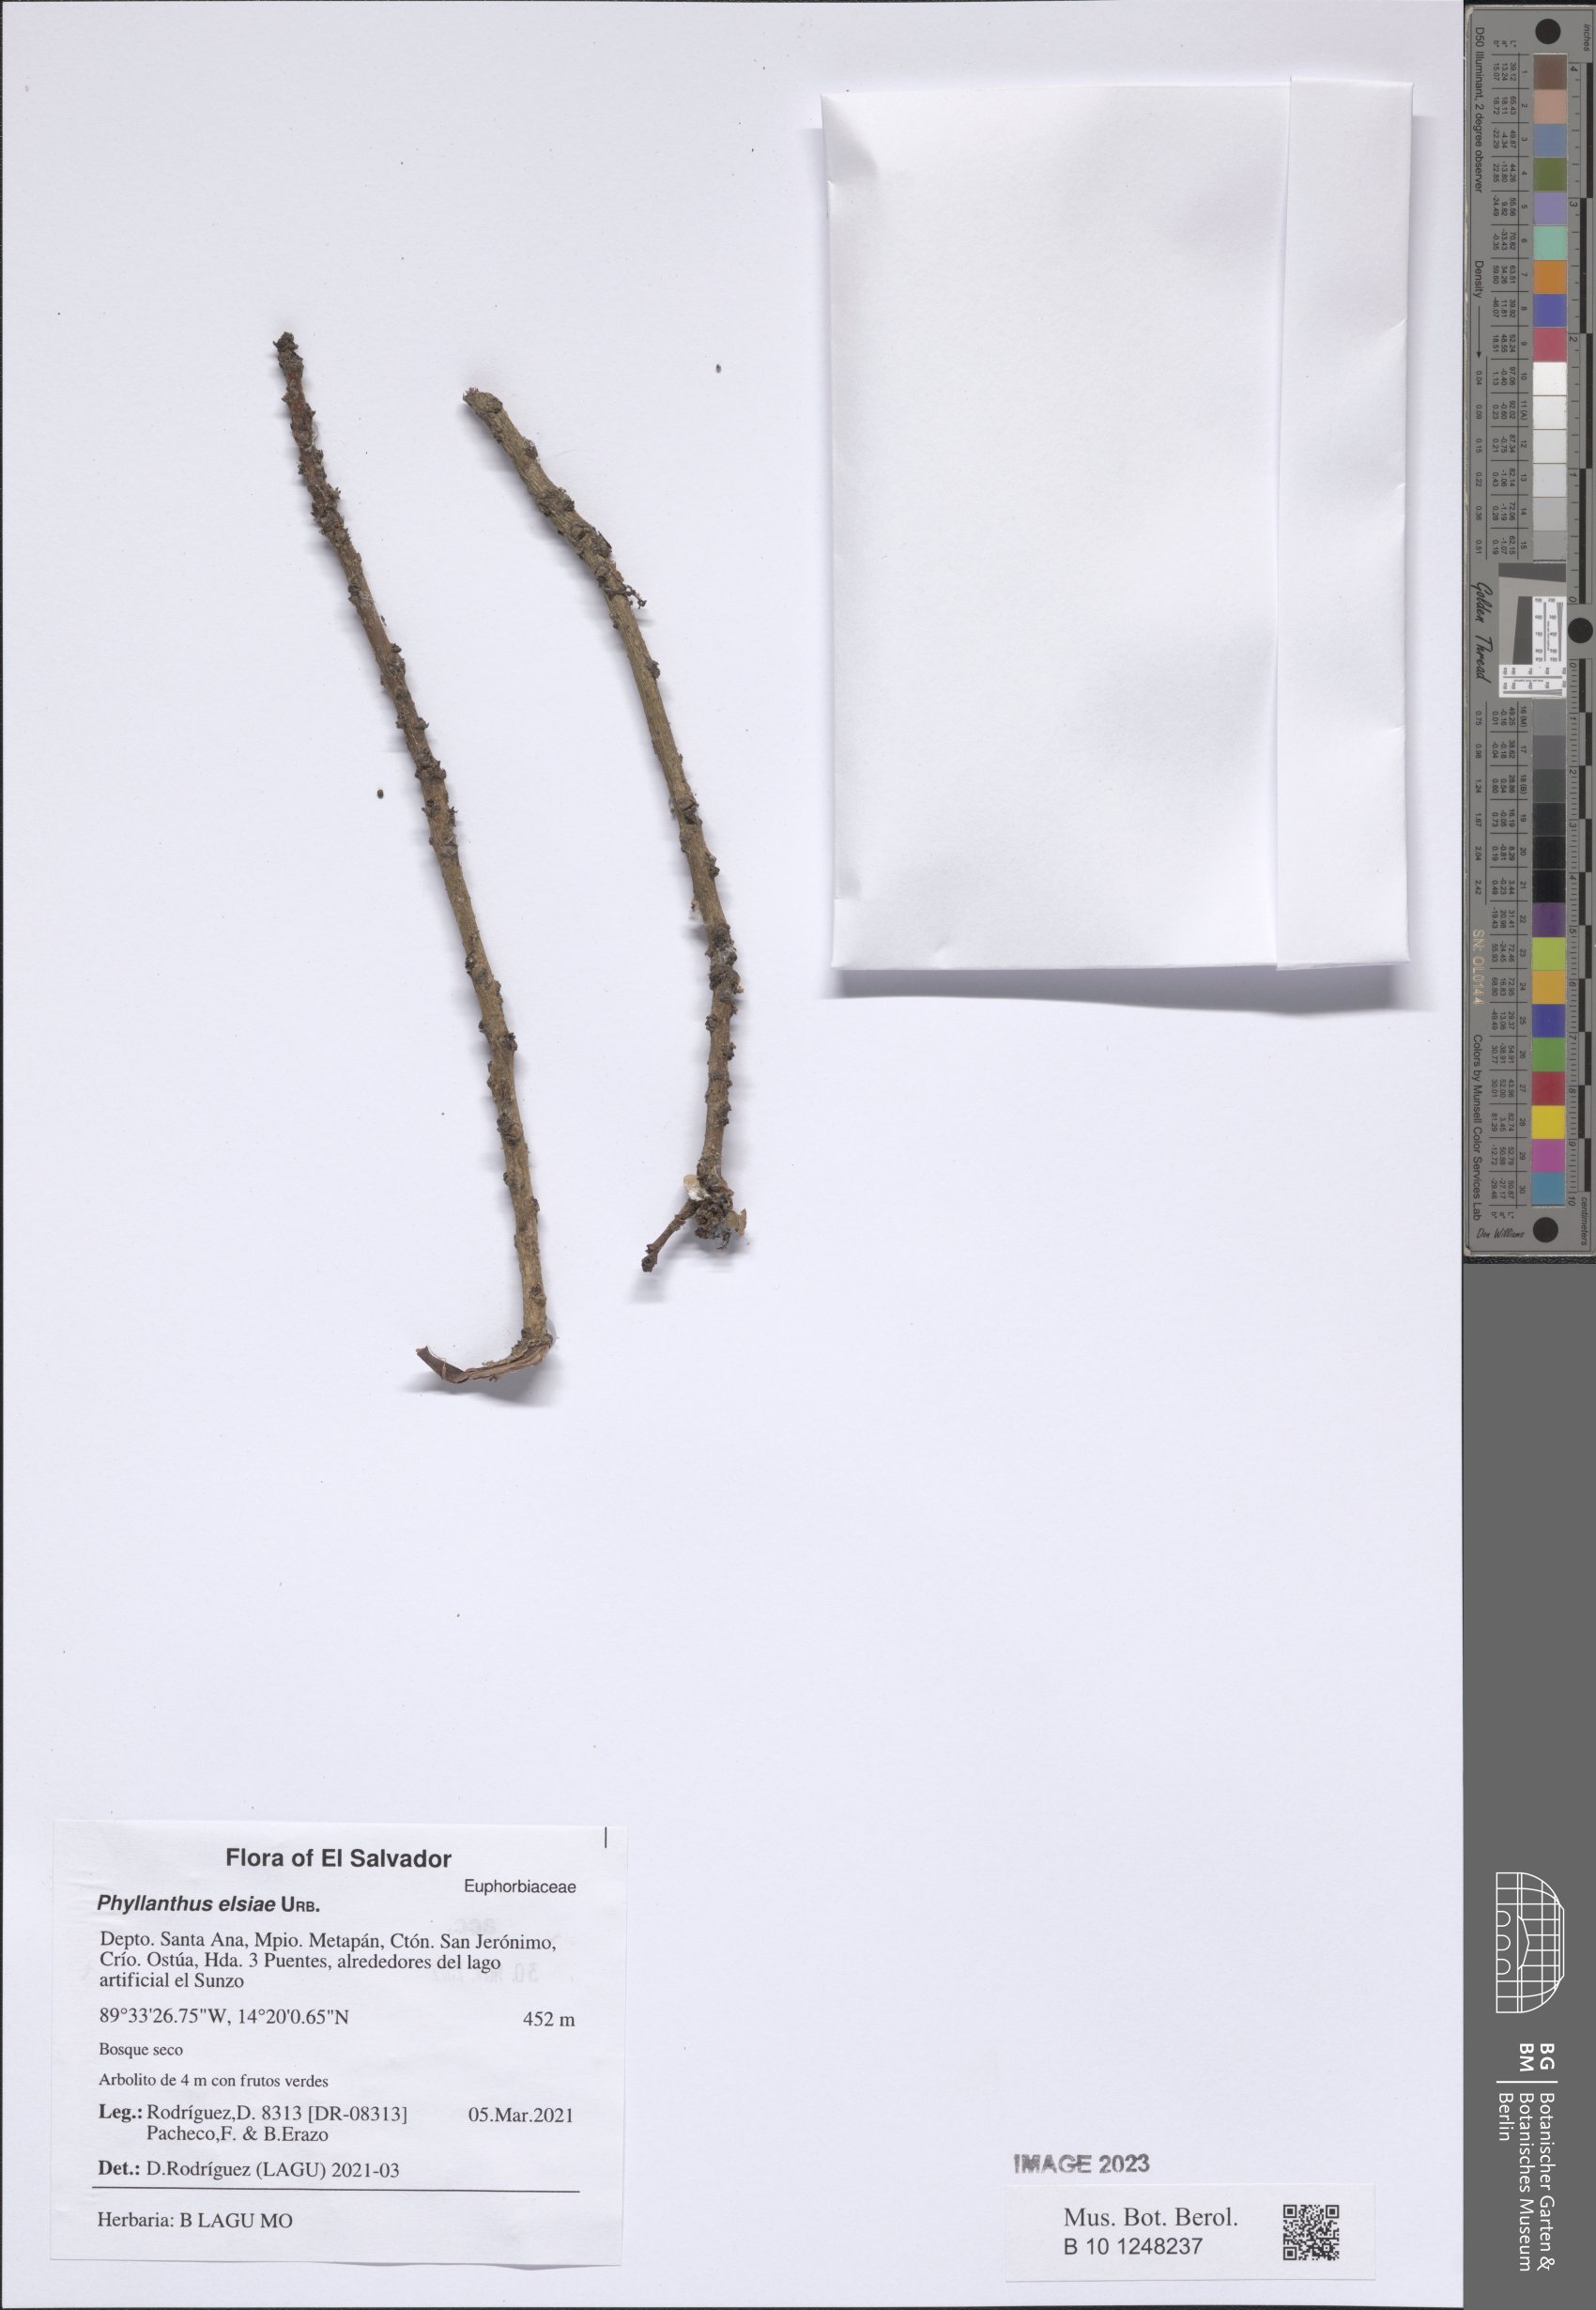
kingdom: Plantae
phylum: Tracheophyta
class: Magnoliopsida
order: Malpighiales
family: Phyllanthaceae
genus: Phyllanthus
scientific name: Phyllanthus elsiae
